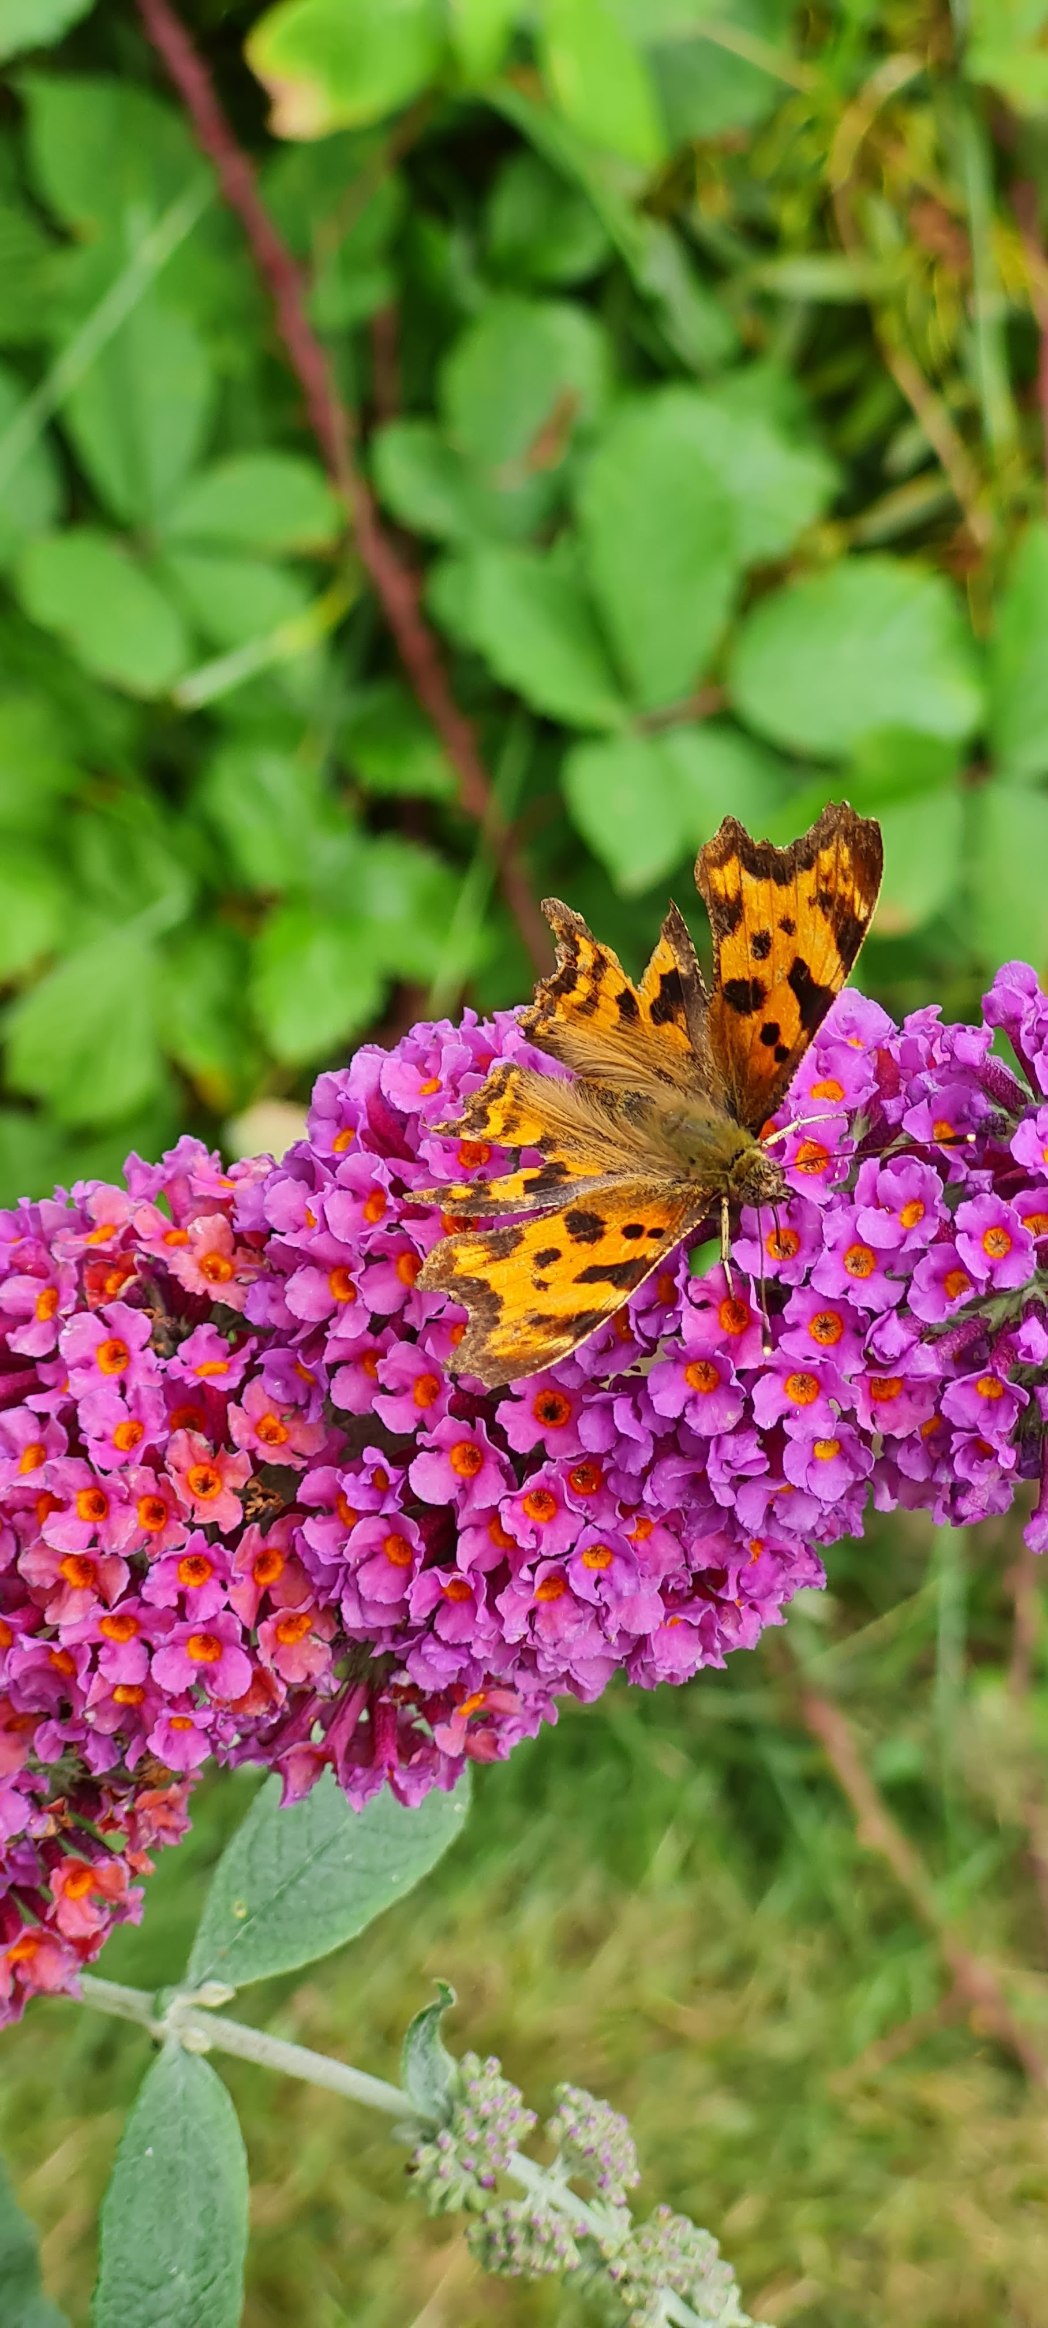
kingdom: Animalia
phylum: Arthropoda
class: Insecta
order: Lepidoptera
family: Nymphalidae
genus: Polygonia
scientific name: Polygonia c-album
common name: Det hvide C
